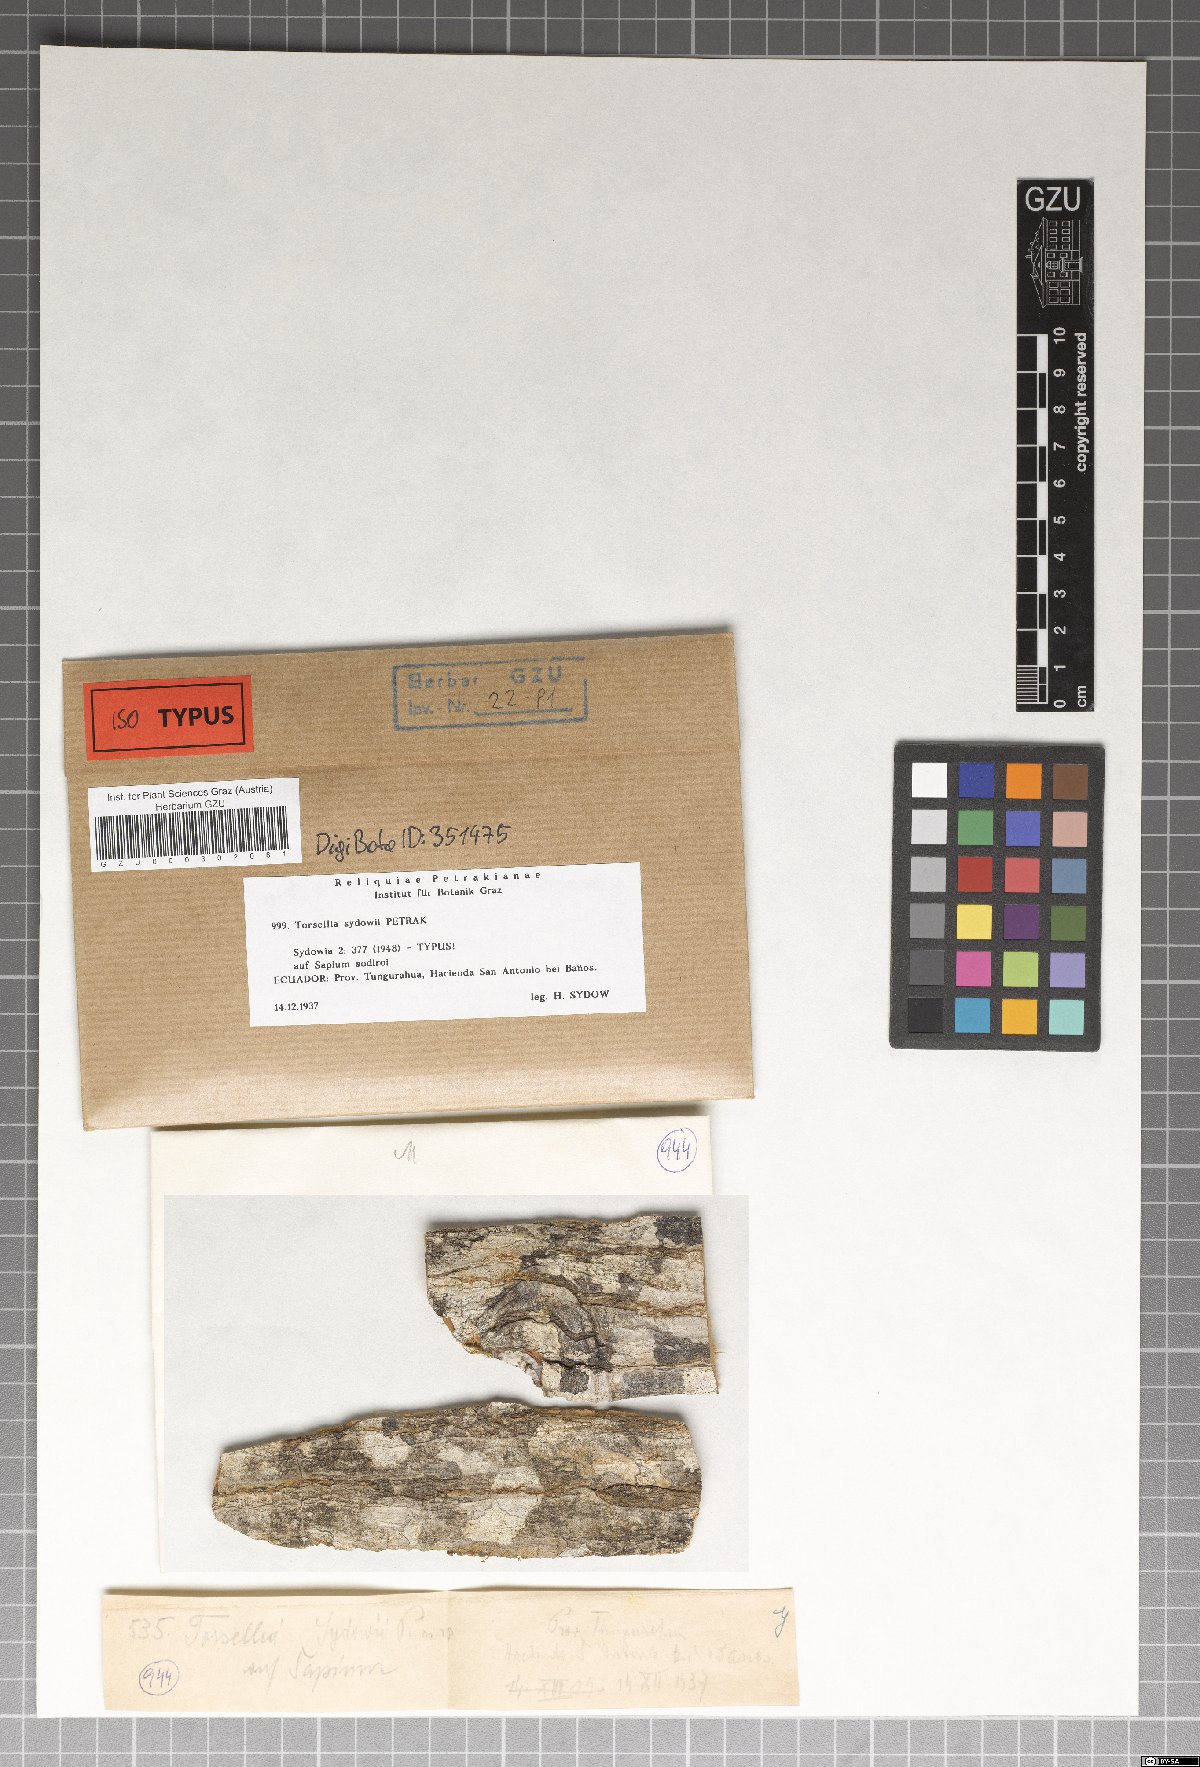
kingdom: Fungi
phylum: Ascomycota
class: Sordariomycetes
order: Diaporthales
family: Valsaceae
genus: Torsellia
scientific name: Torsellia sydowii
